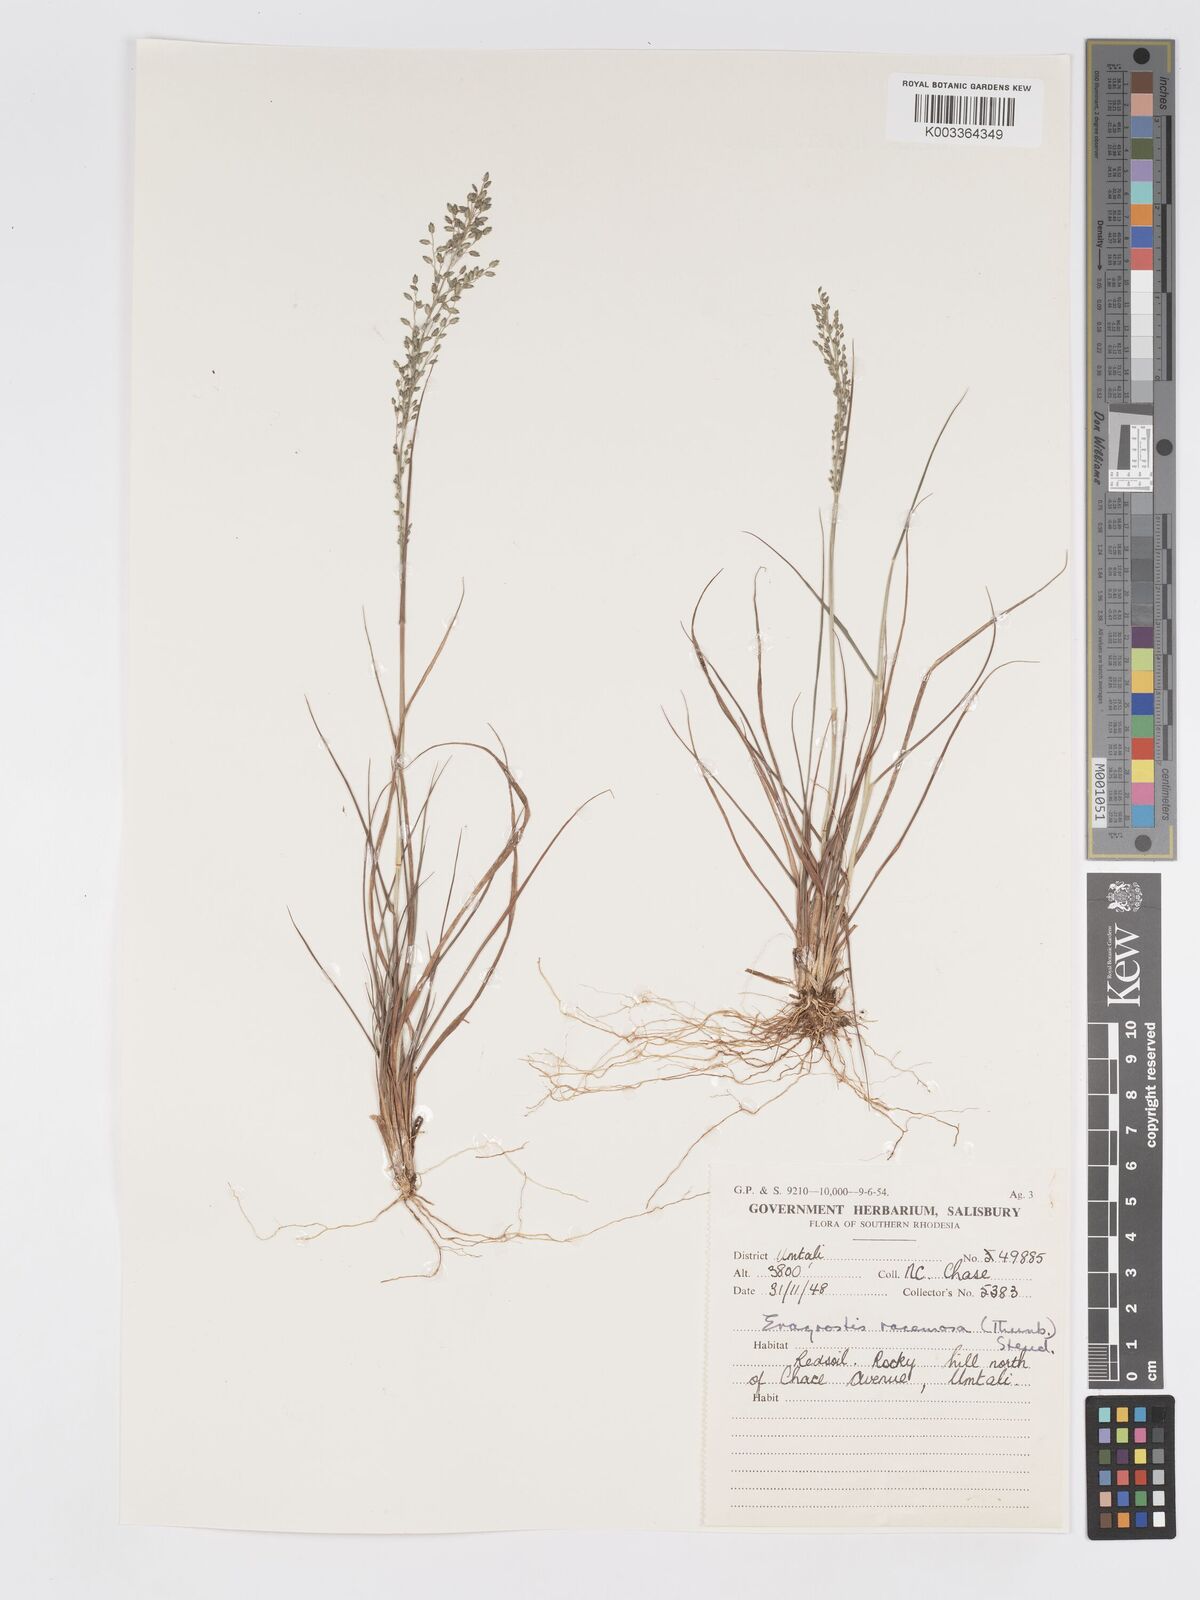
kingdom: Plantae
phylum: Tracheophyta
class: Liliopsida
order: Poales
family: Poaceae
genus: Eragrostis
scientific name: Eragrostis racemosa
